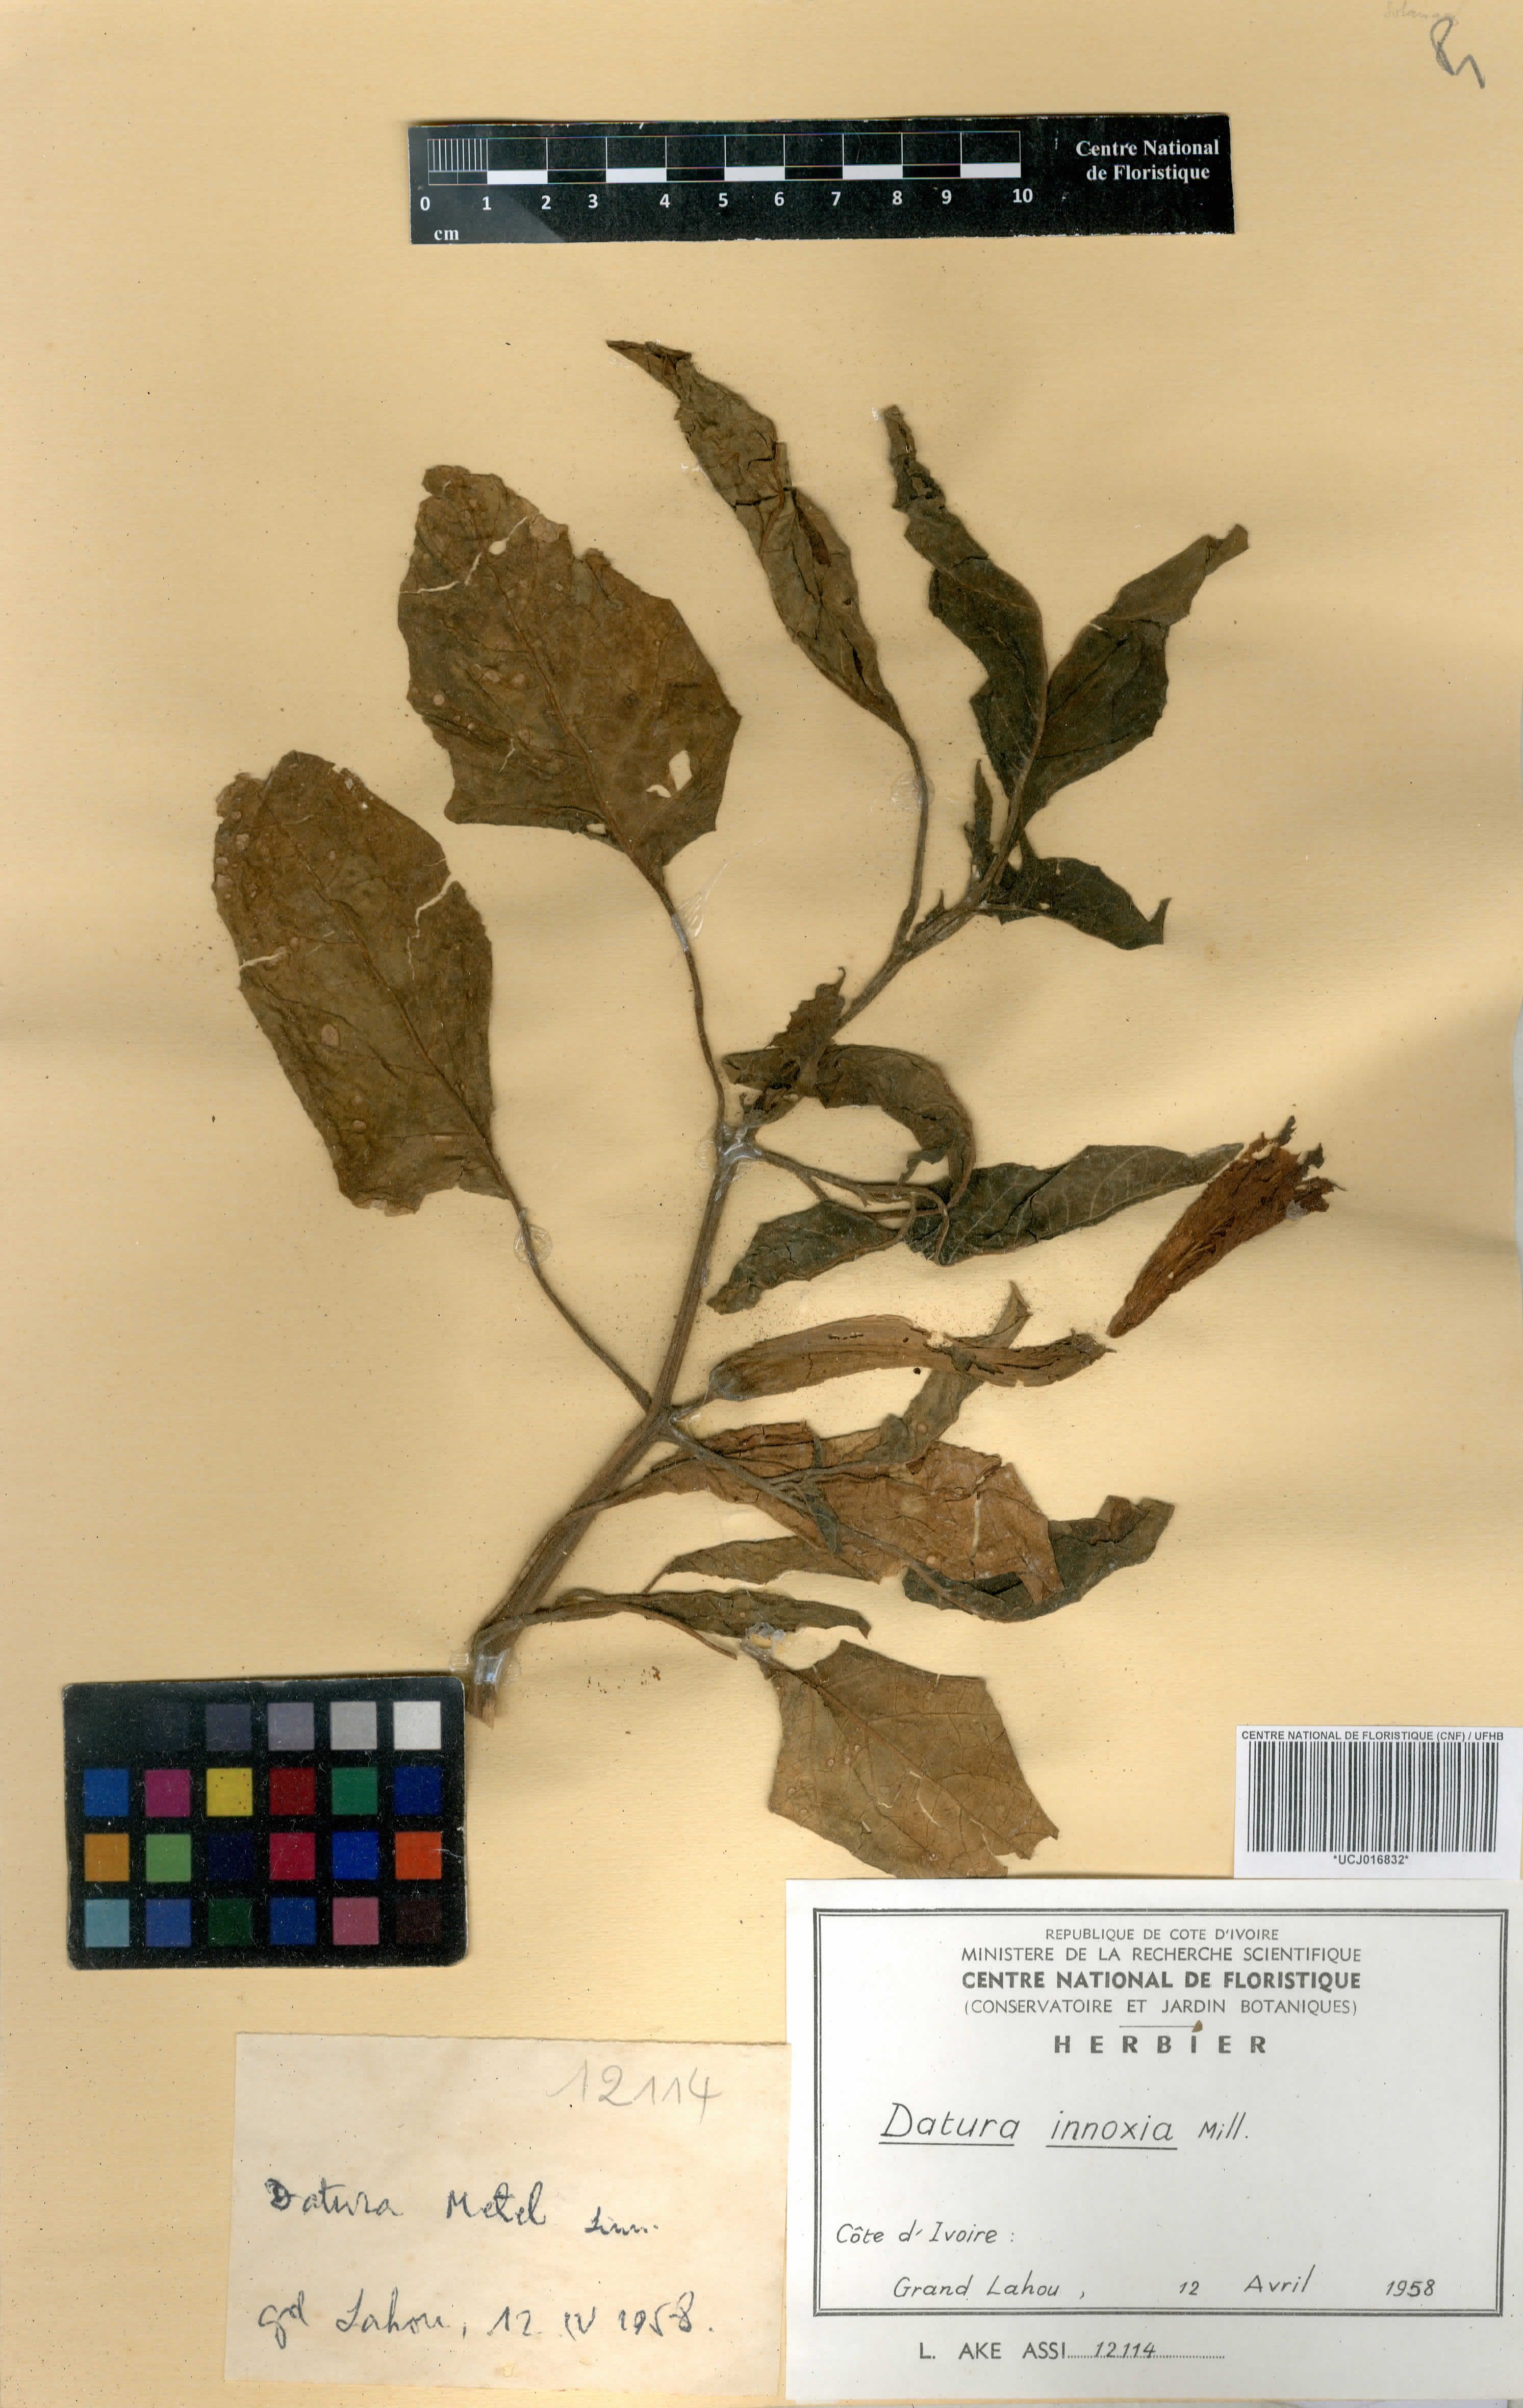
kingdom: Plantae
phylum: Tracheophyta
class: Magnoliopsida
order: Solanales
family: Solanaceae
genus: Datura
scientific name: Datura innoxia
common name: Downy thorn-apple
